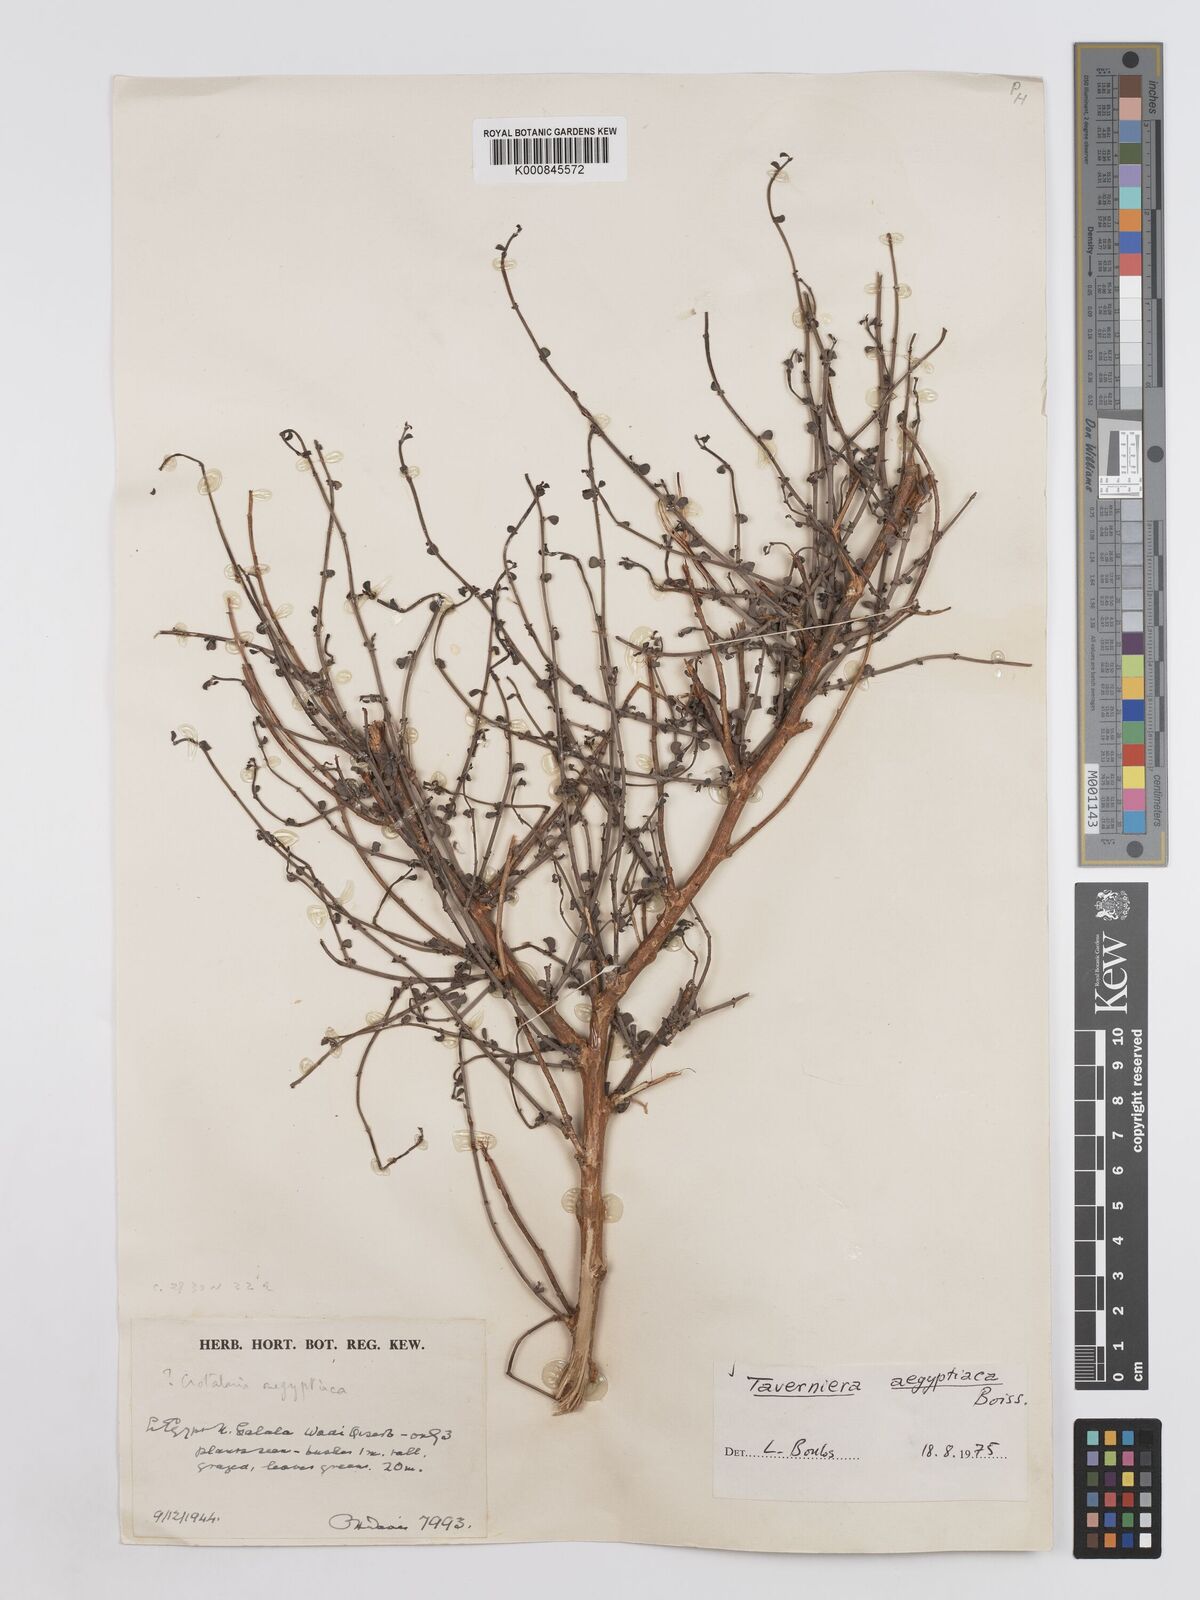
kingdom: Plantae
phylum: Tracheophyta
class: Magnoliopsida
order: Fabales
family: Fabaceae
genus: Taverniera
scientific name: Taverniera aegyptiaca
